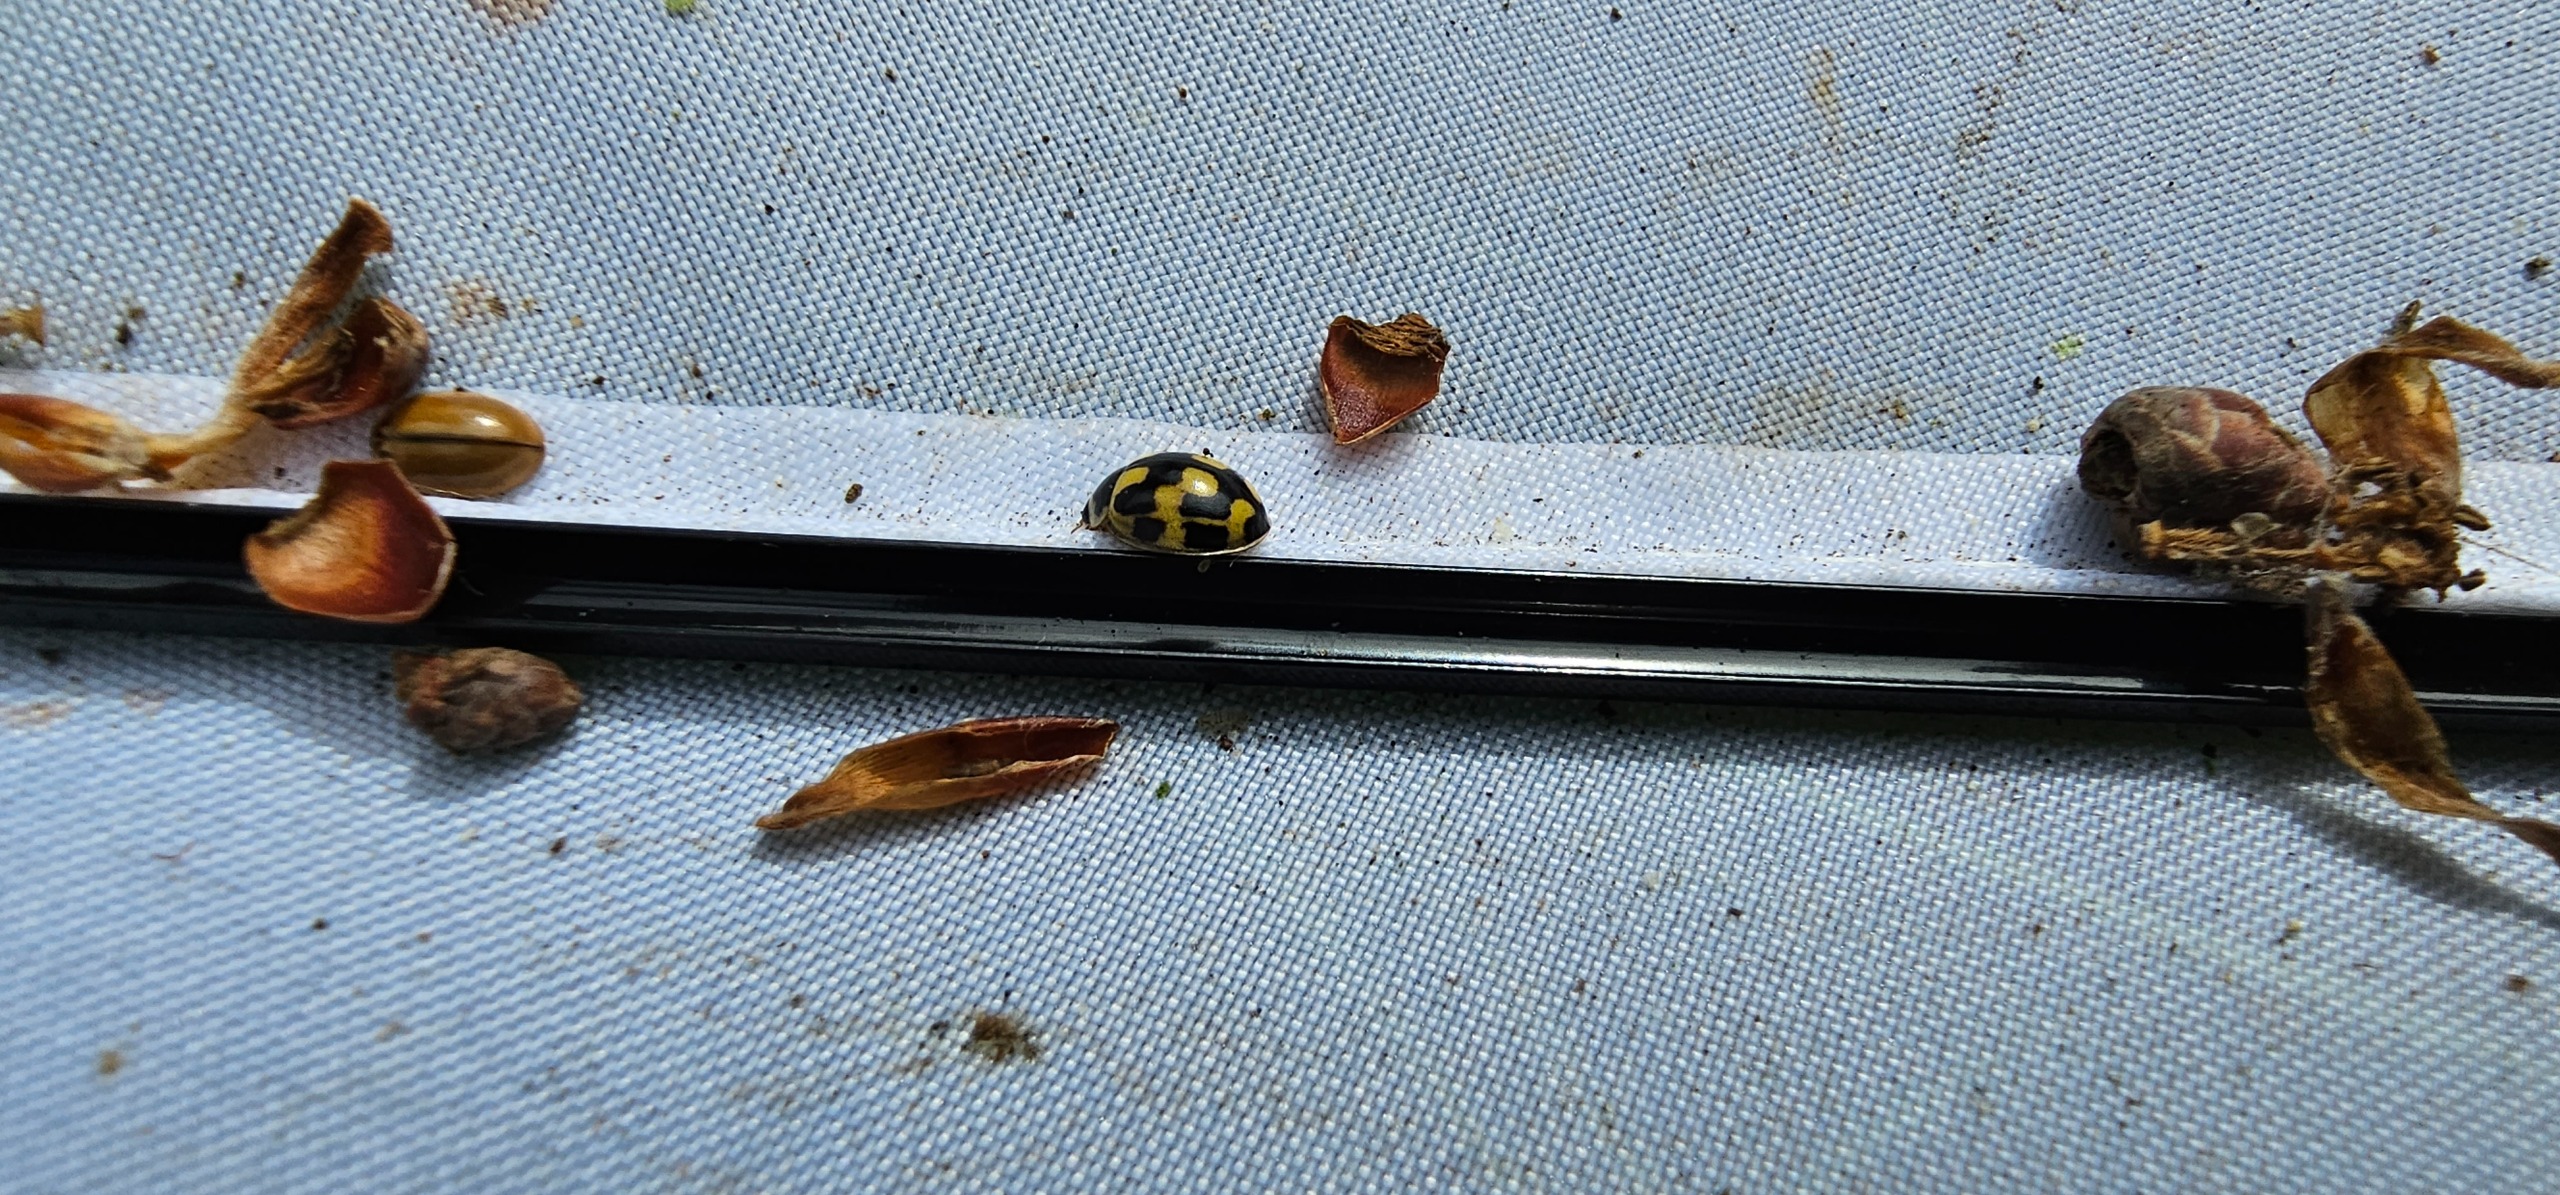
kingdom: Animalia
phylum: Arthropoda
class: Insecta
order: Coleoptera
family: Coccinellidae
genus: Propylaea
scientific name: Propylaea quatuordecimpunctata
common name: Skakbræt
